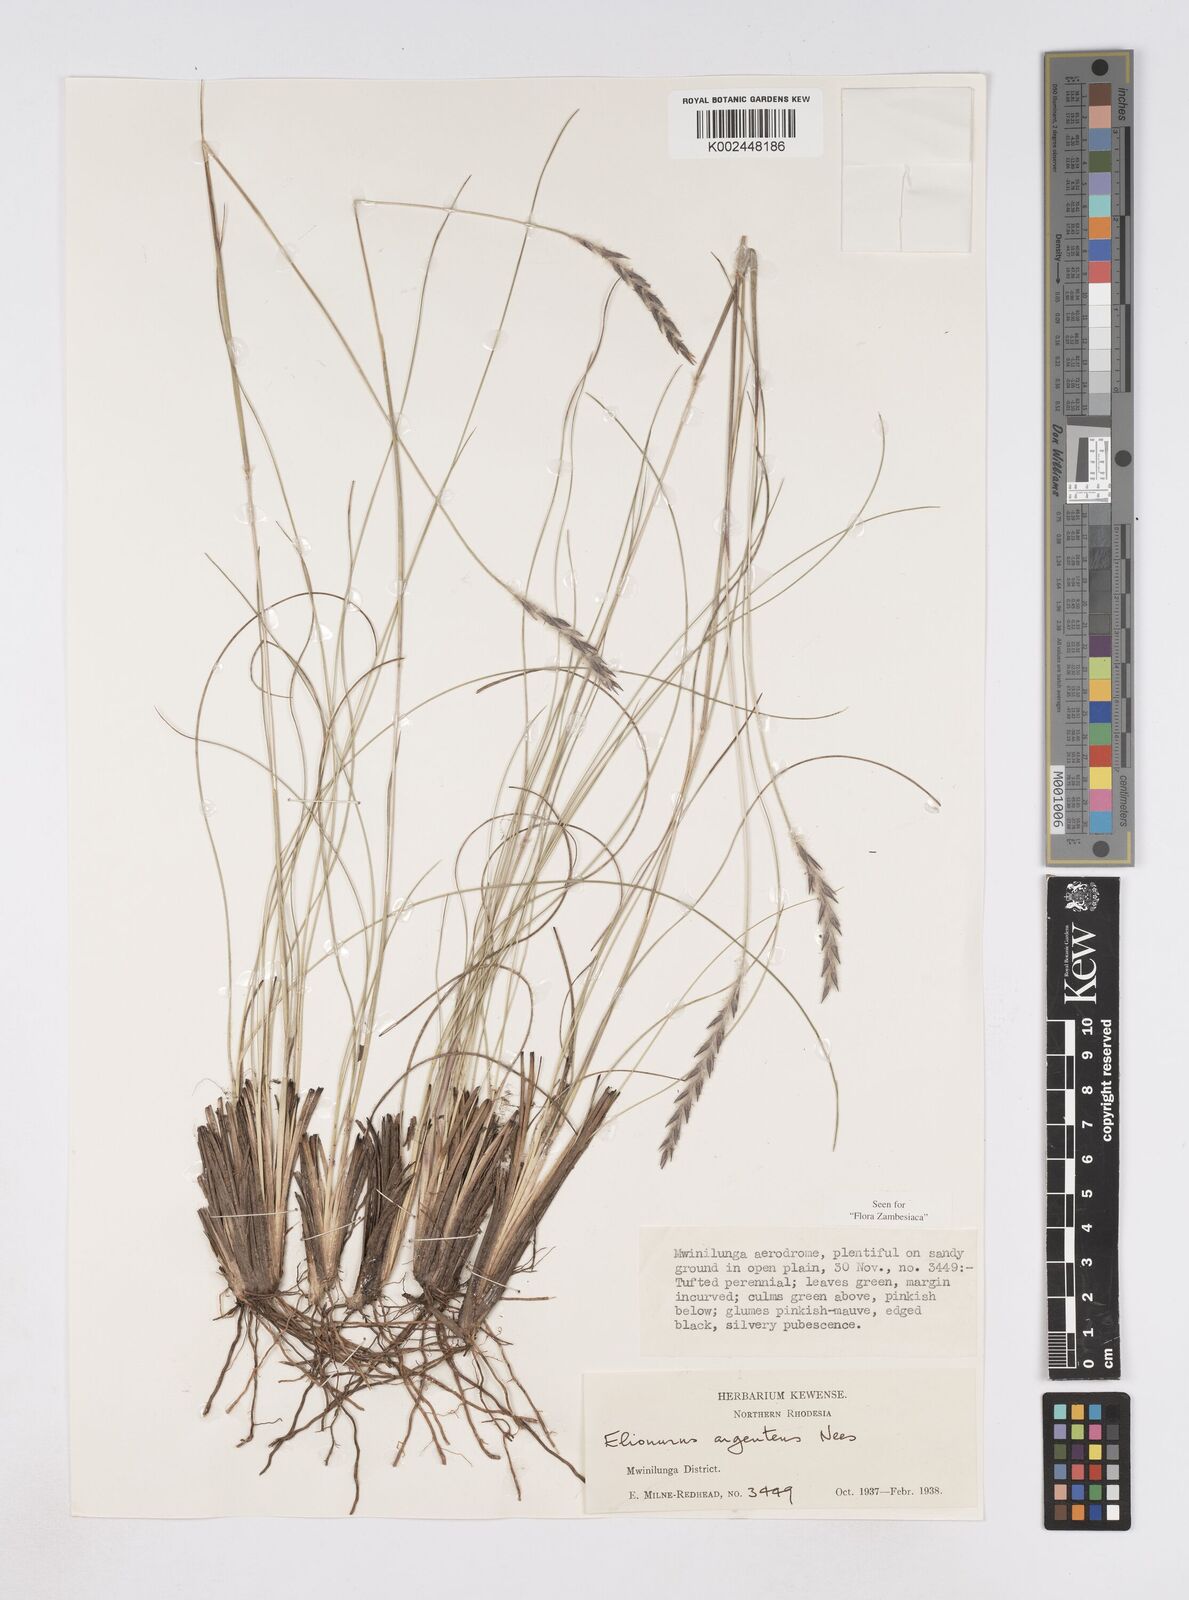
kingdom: Plantae
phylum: Tracheophyta
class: Liliopsida
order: Poales
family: Poaceae
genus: Elionurus
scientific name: Elionurus muticus
